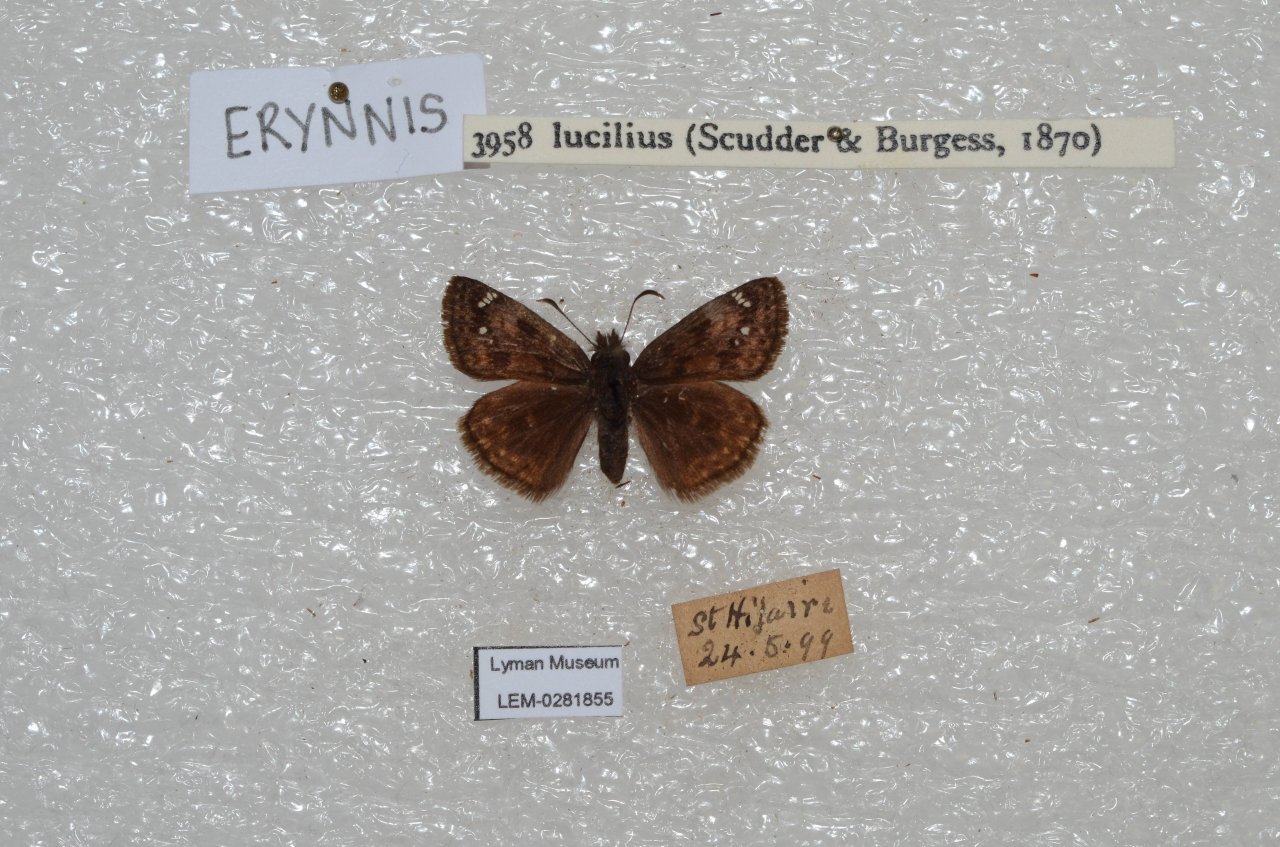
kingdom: Animalia
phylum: Arthropoda
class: Insecta
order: Lepidoptera
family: Hesperiidae
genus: Gesta
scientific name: Gesta
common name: Columbine Duskywing
